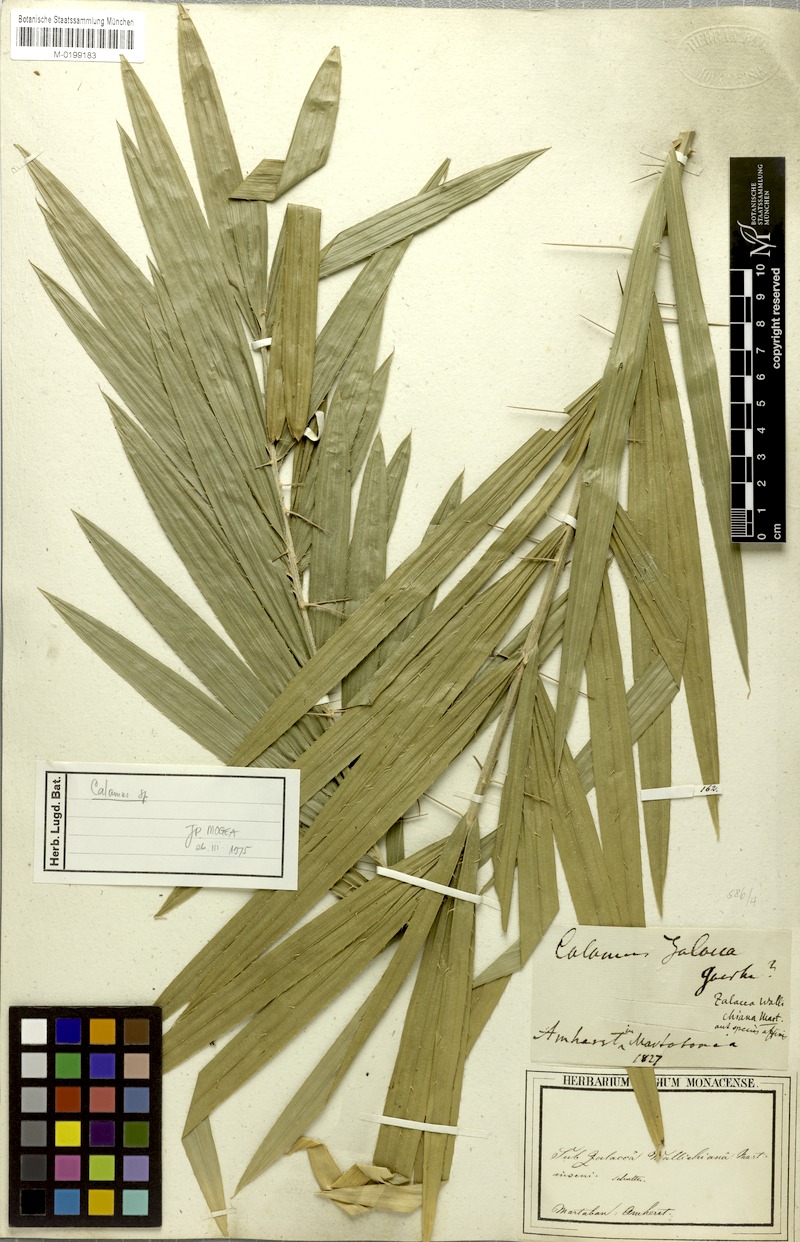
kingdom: Plantae
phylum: Tracheophyta
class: Liliopsida
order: Arecales
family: Arecaceae
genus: Calamus
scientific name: Calamus
